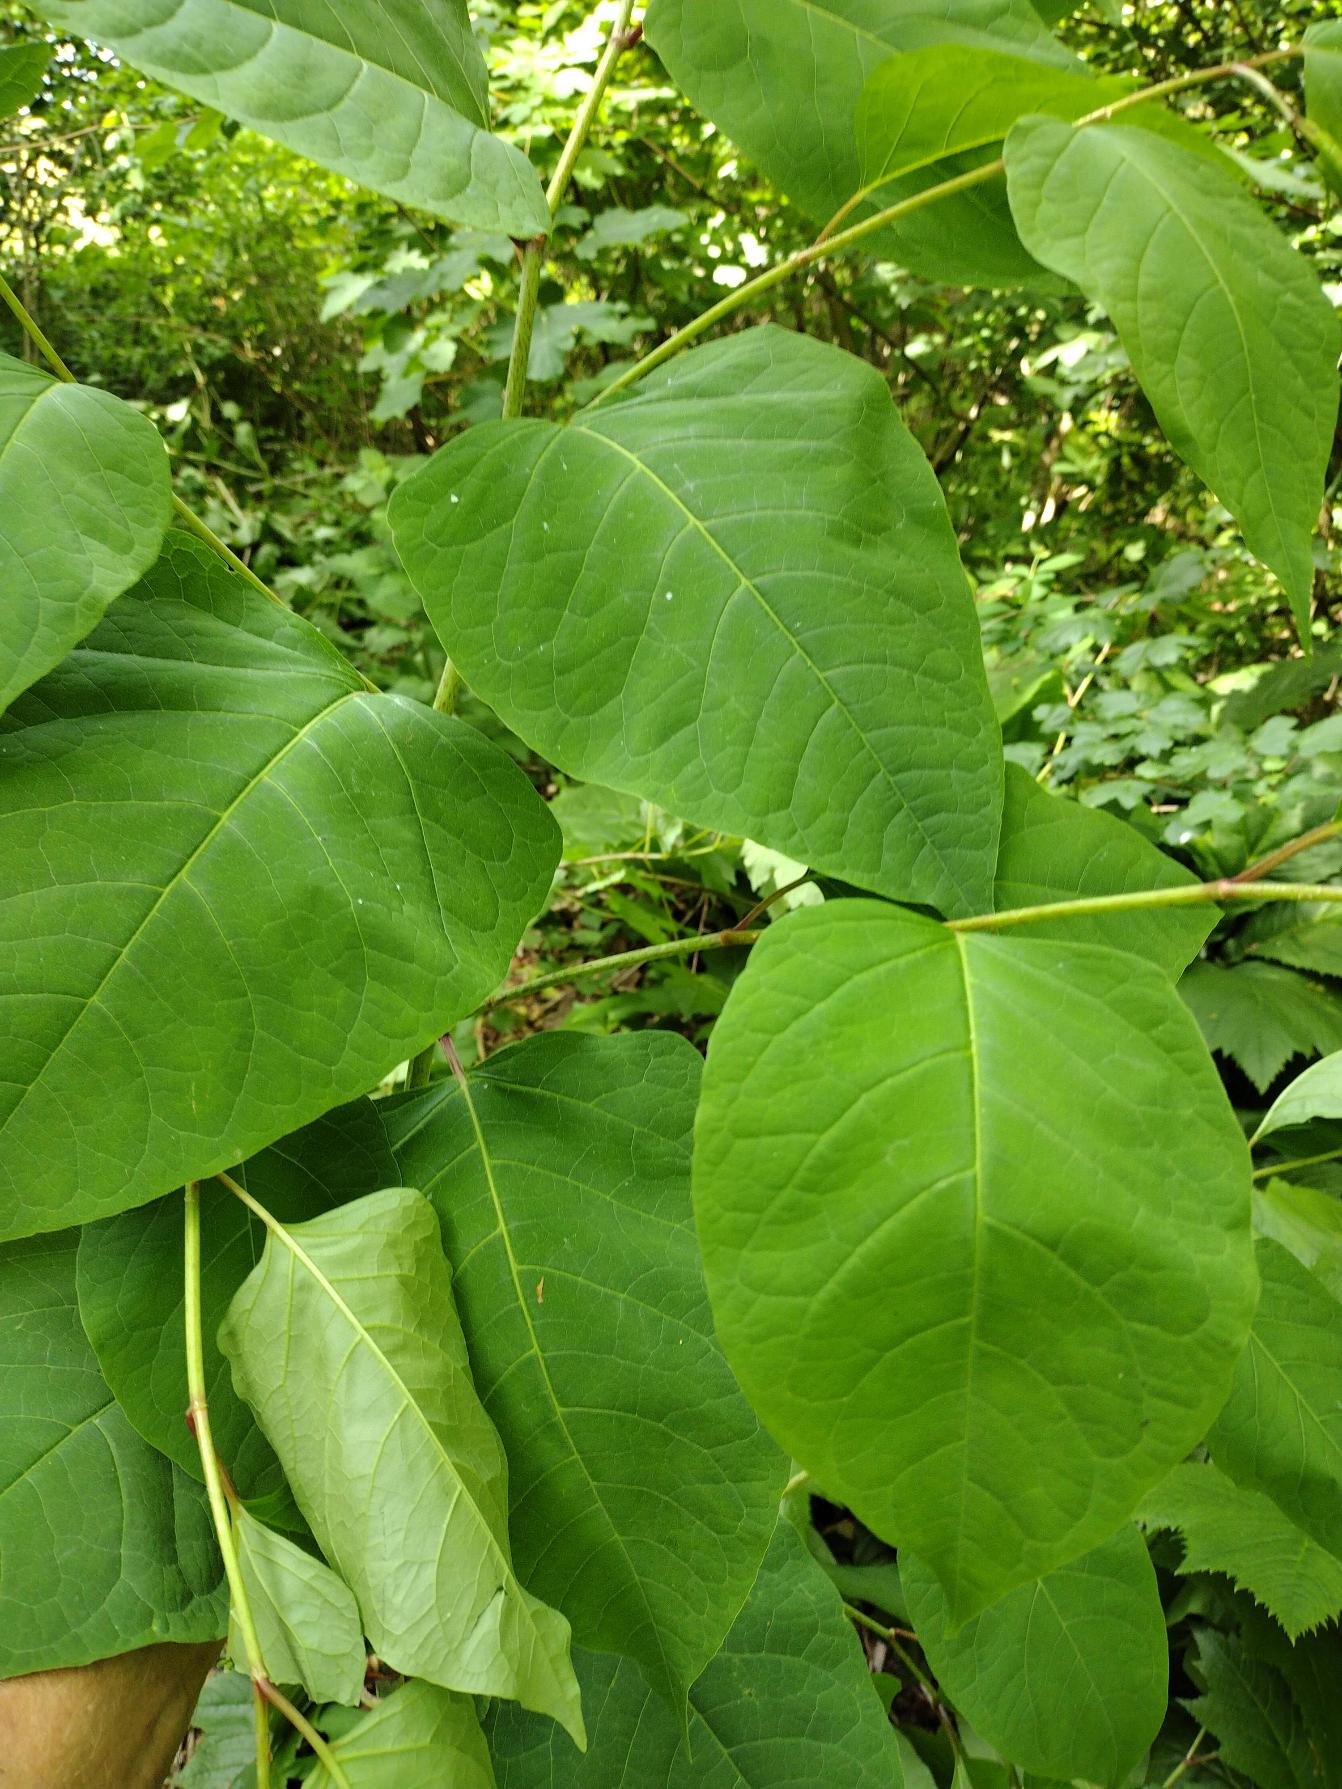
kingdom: Plantae
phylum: Tracheophyta
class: Magnoliopsida
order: Caryophyllales
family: Polygonaceae
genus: Reynoutria
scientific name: Reynoutria japonica
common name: Japan-pileurt
